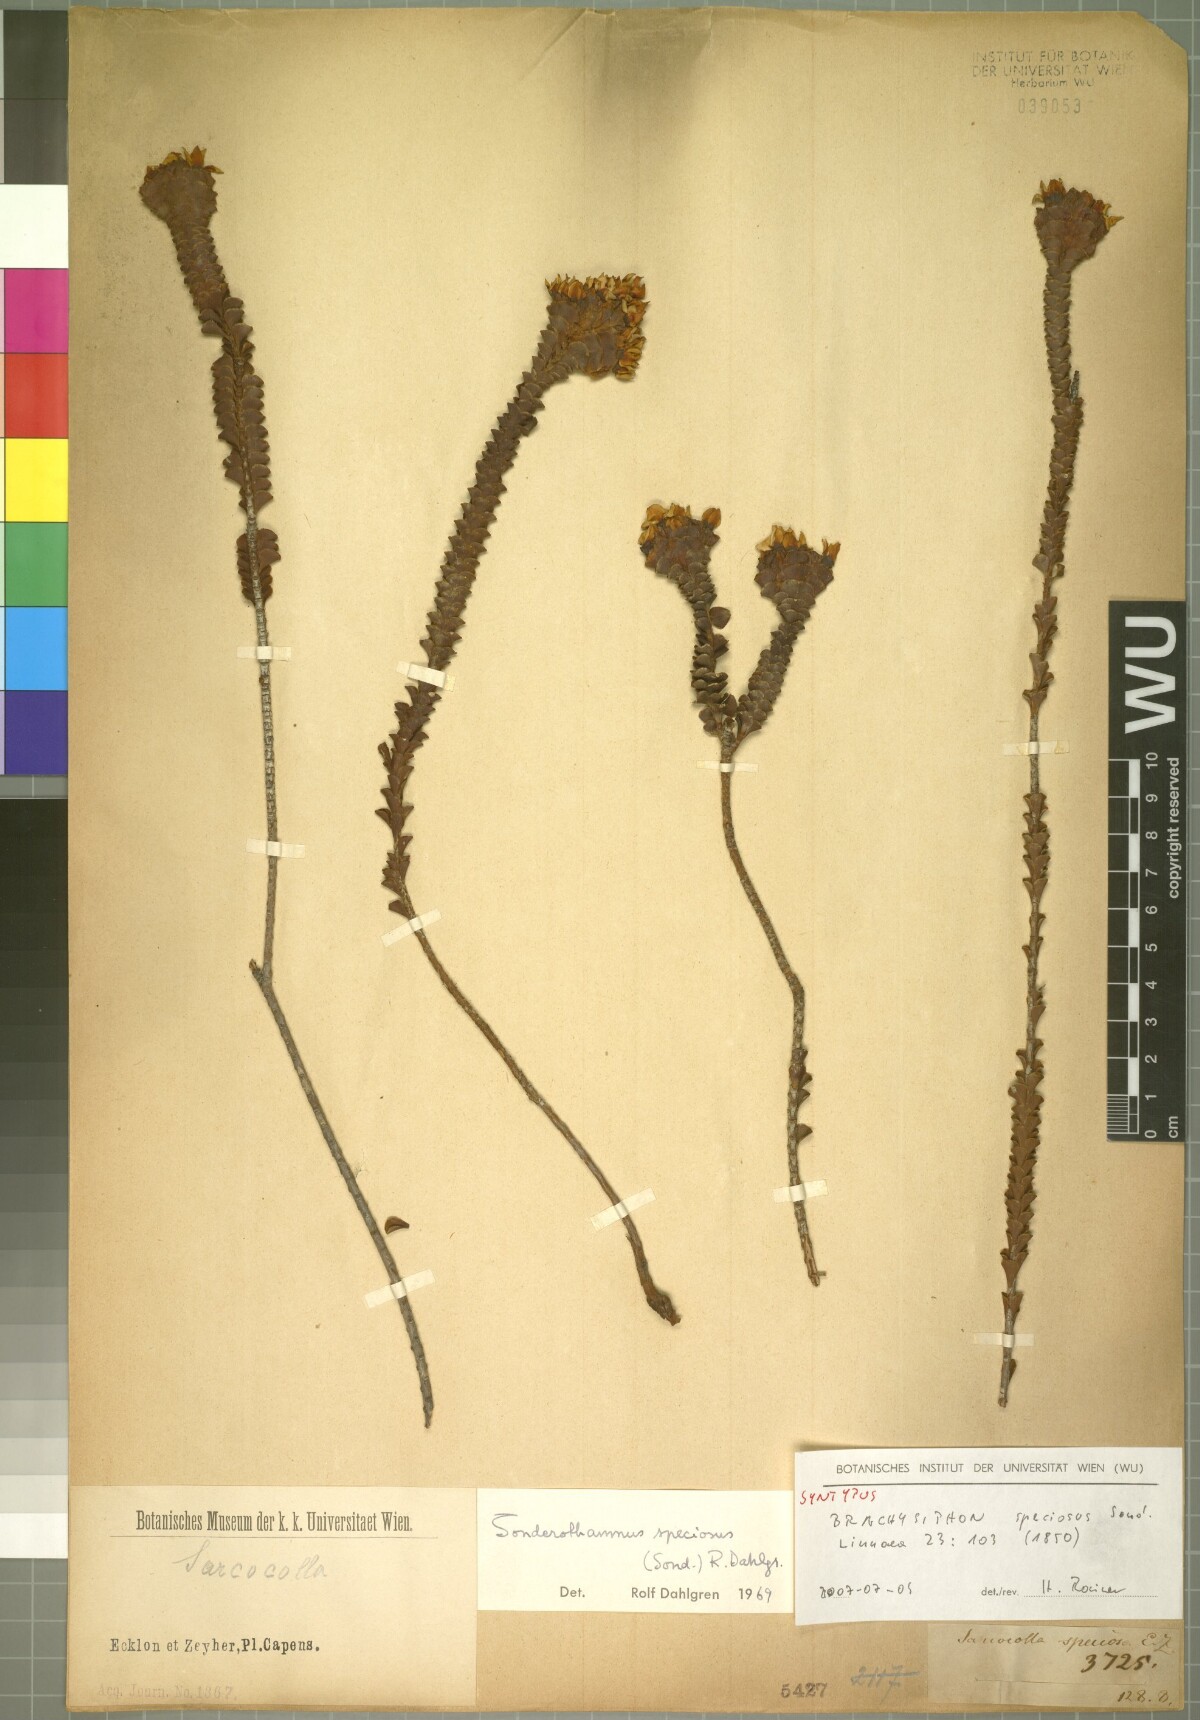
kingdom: Plantae
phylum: Tracheophyta
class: Magnoliopsida
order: Myrtales
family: Penaeaceae
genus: Sonderothamnus
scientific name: Sonderothamnus speciosus
